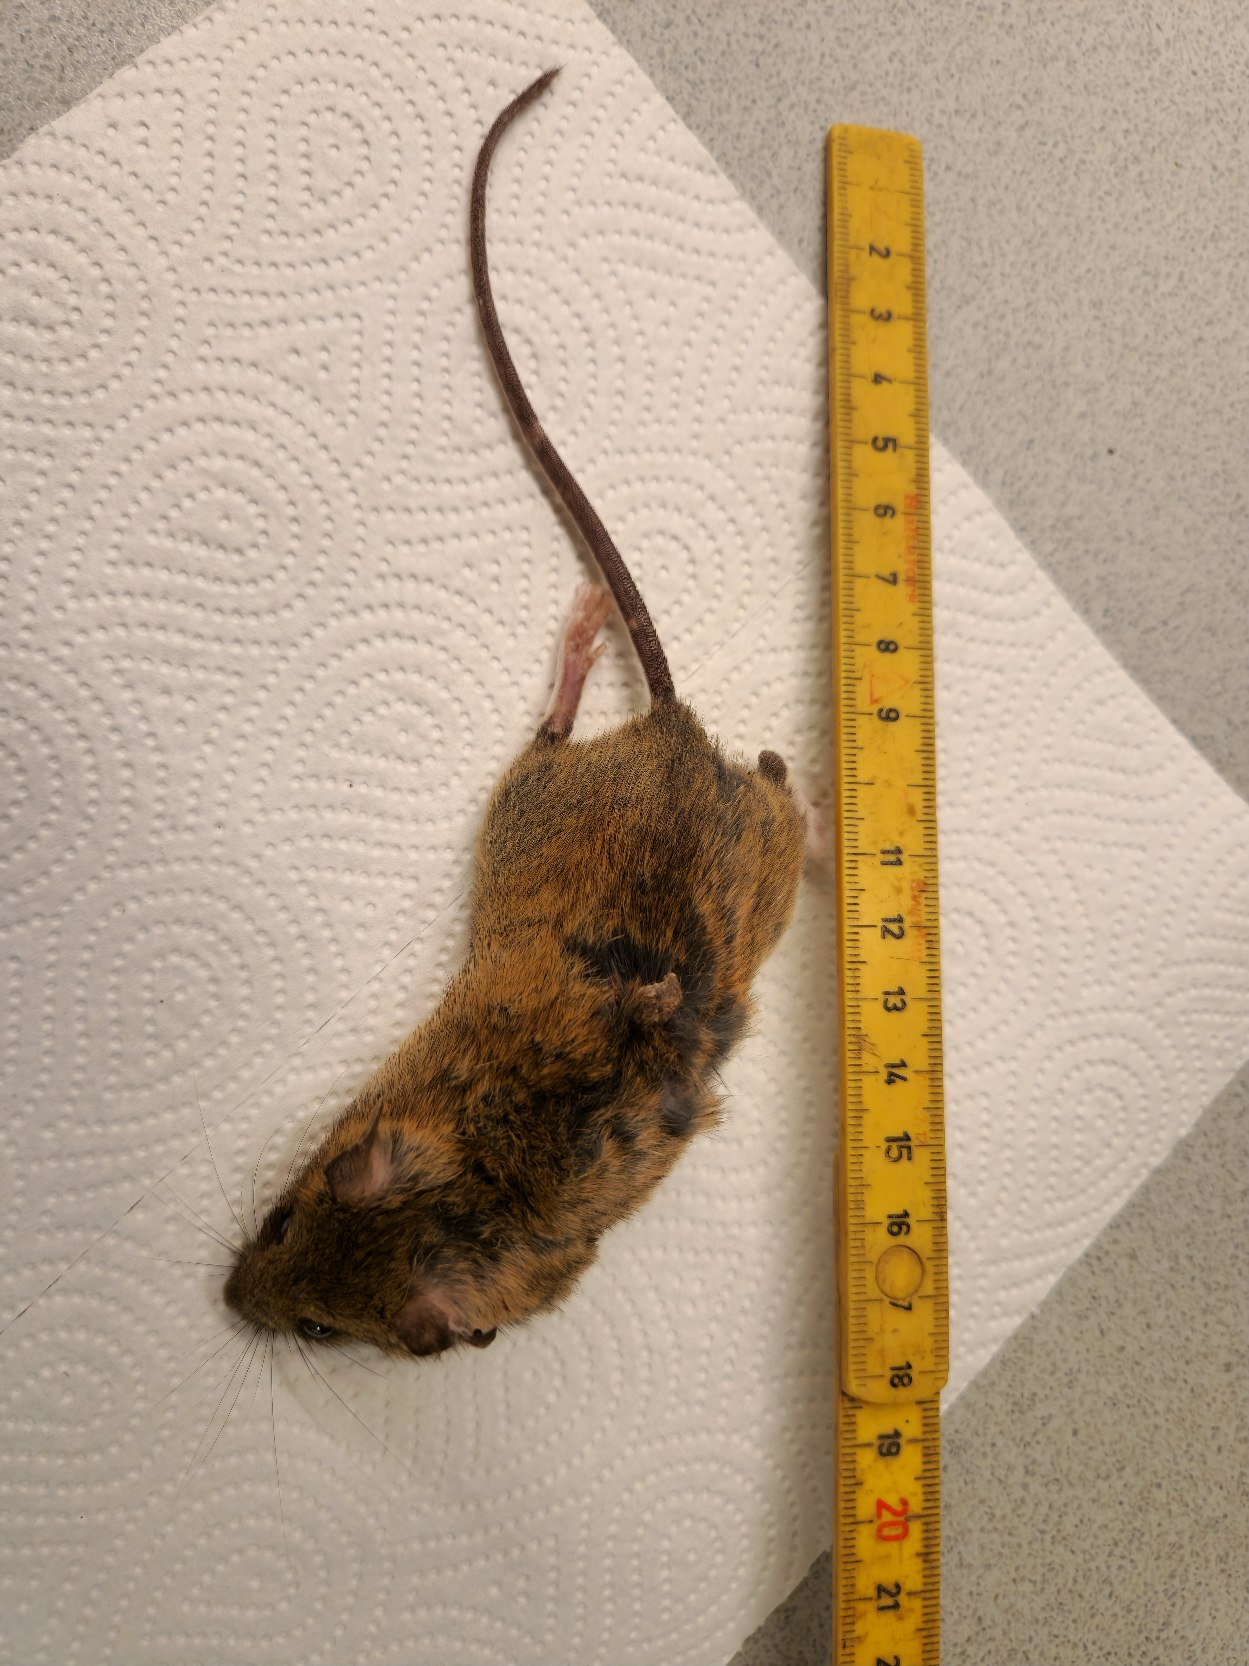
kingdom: Animalia
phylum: Chordata
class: Mammalia
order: Rodentia
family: Muridae
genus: Apodemus
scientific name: Apodemus flavicollis
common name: Halsbåndmus
